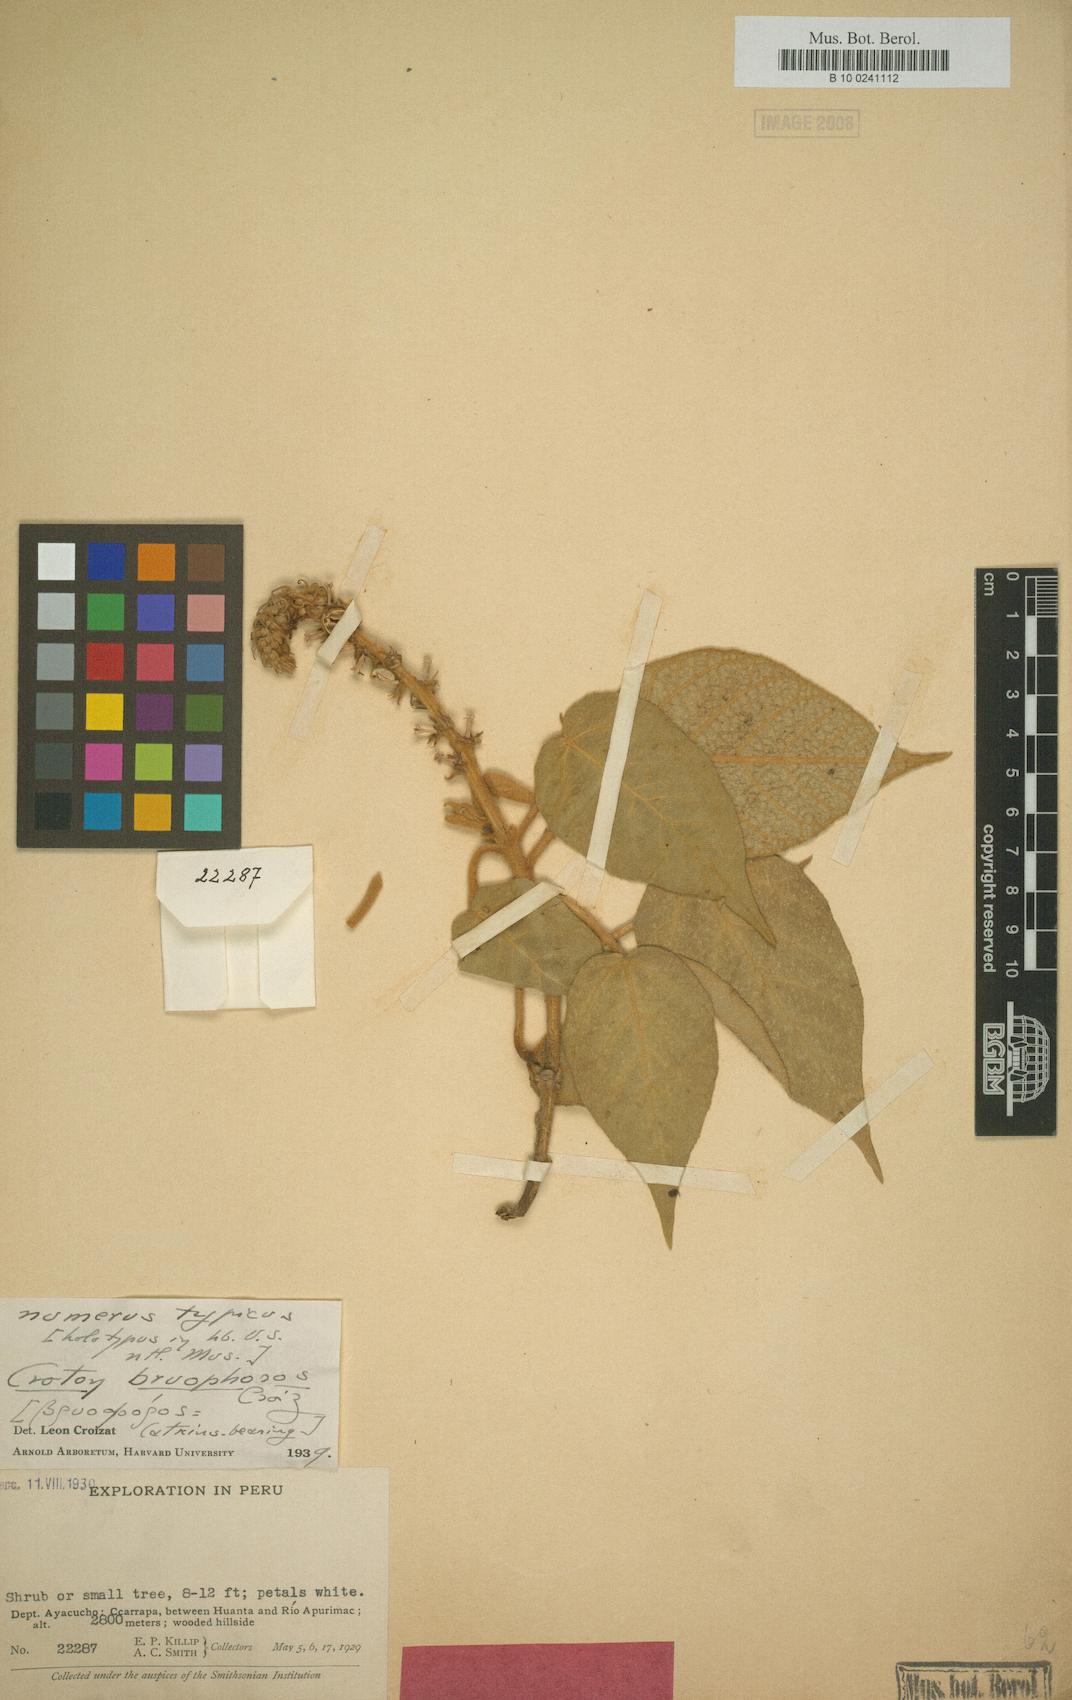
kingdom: Plantae
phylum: Tracheophyta
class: Magnoliopsida
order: Malpighiales
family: Euphorbiaceae
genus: Croton
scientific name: Croton bryophoros
